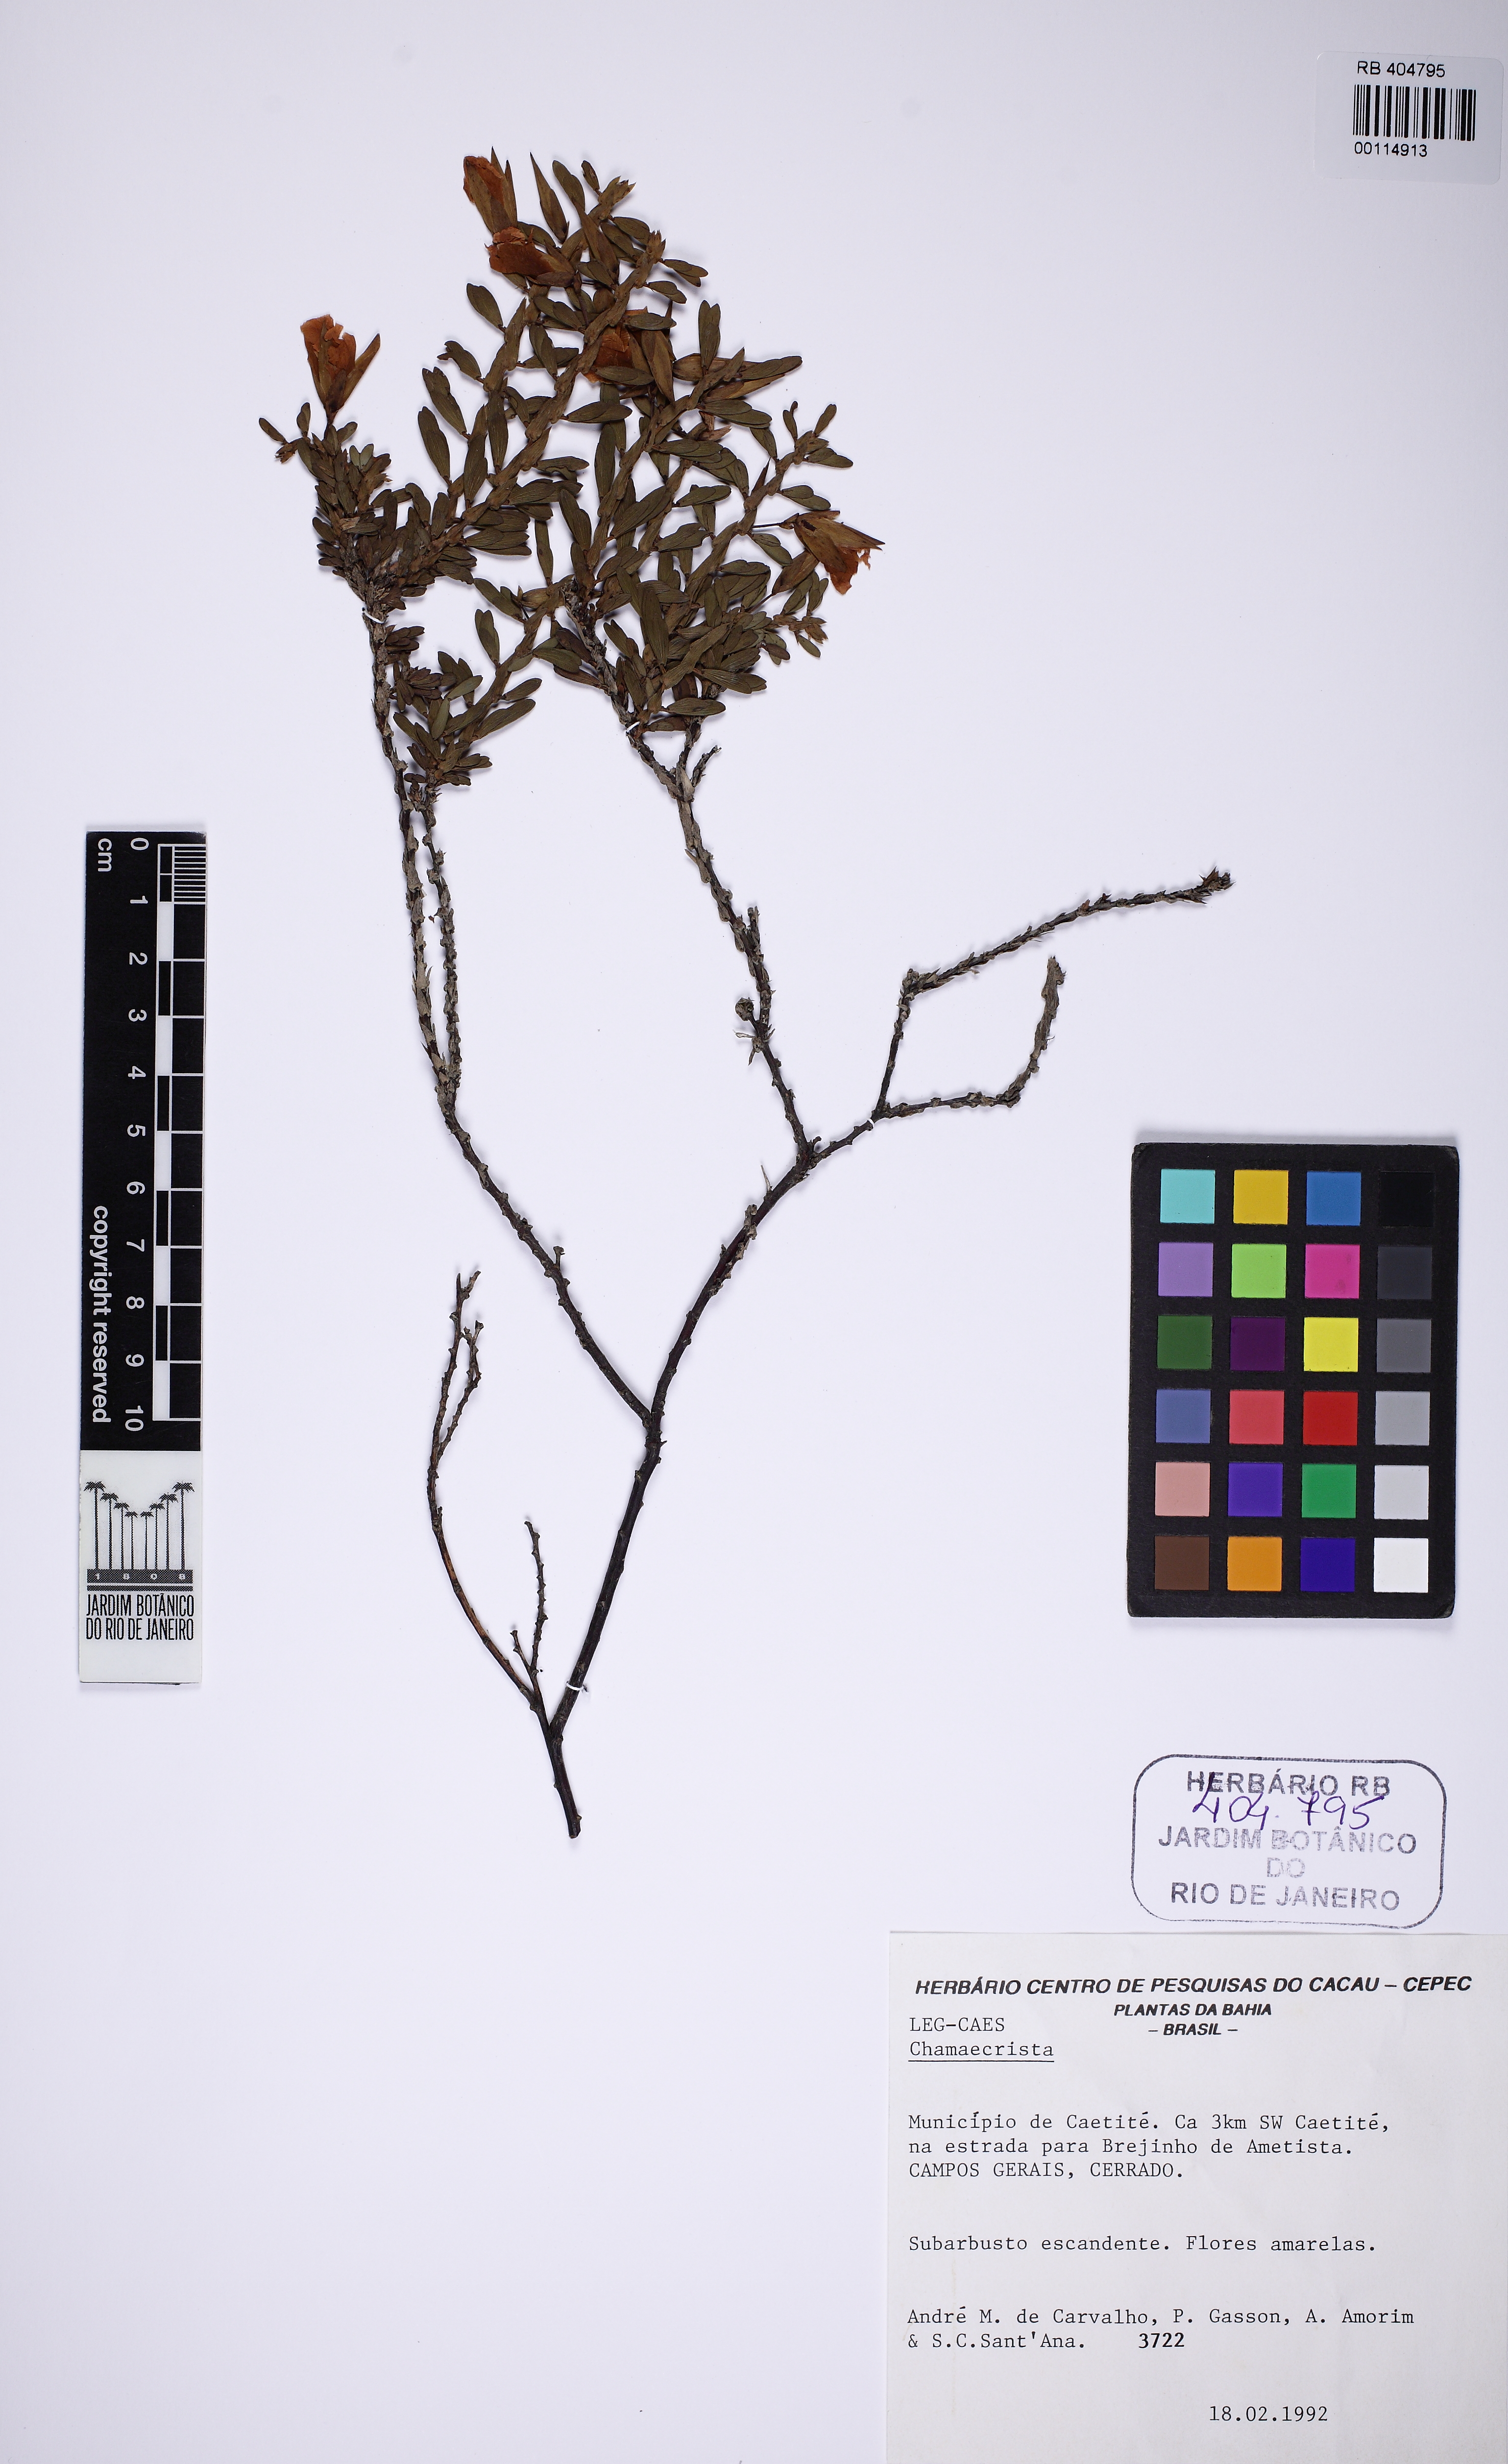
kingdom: Plantae
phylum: Tracheophyta
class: Magnoliopsida
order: Fabales
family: Fabaceae
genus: Chamaecrista
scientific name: Chamaecrista ramosa
